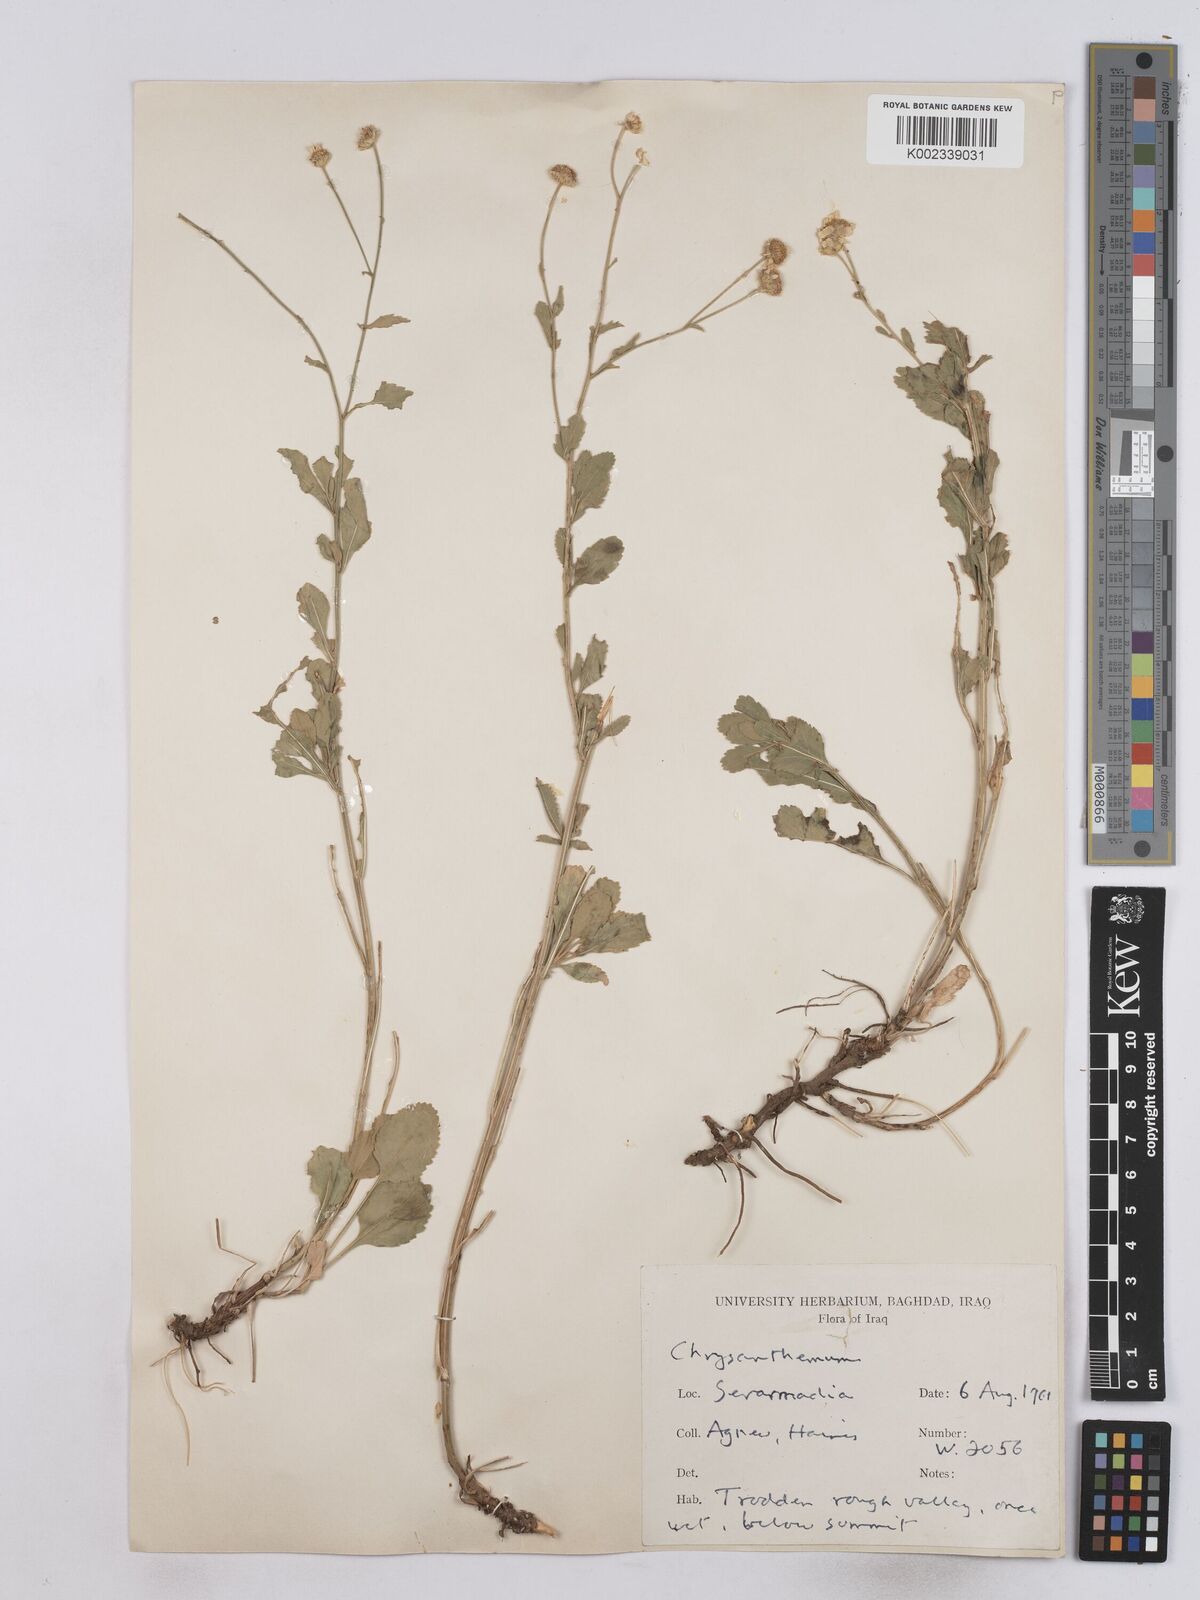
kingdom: Plantae
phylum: Tracheophyta
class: Magnoliopsida
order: Asterales
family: Asteraceae
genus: Tanacetum
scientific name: Tanacetum balsamitoides
